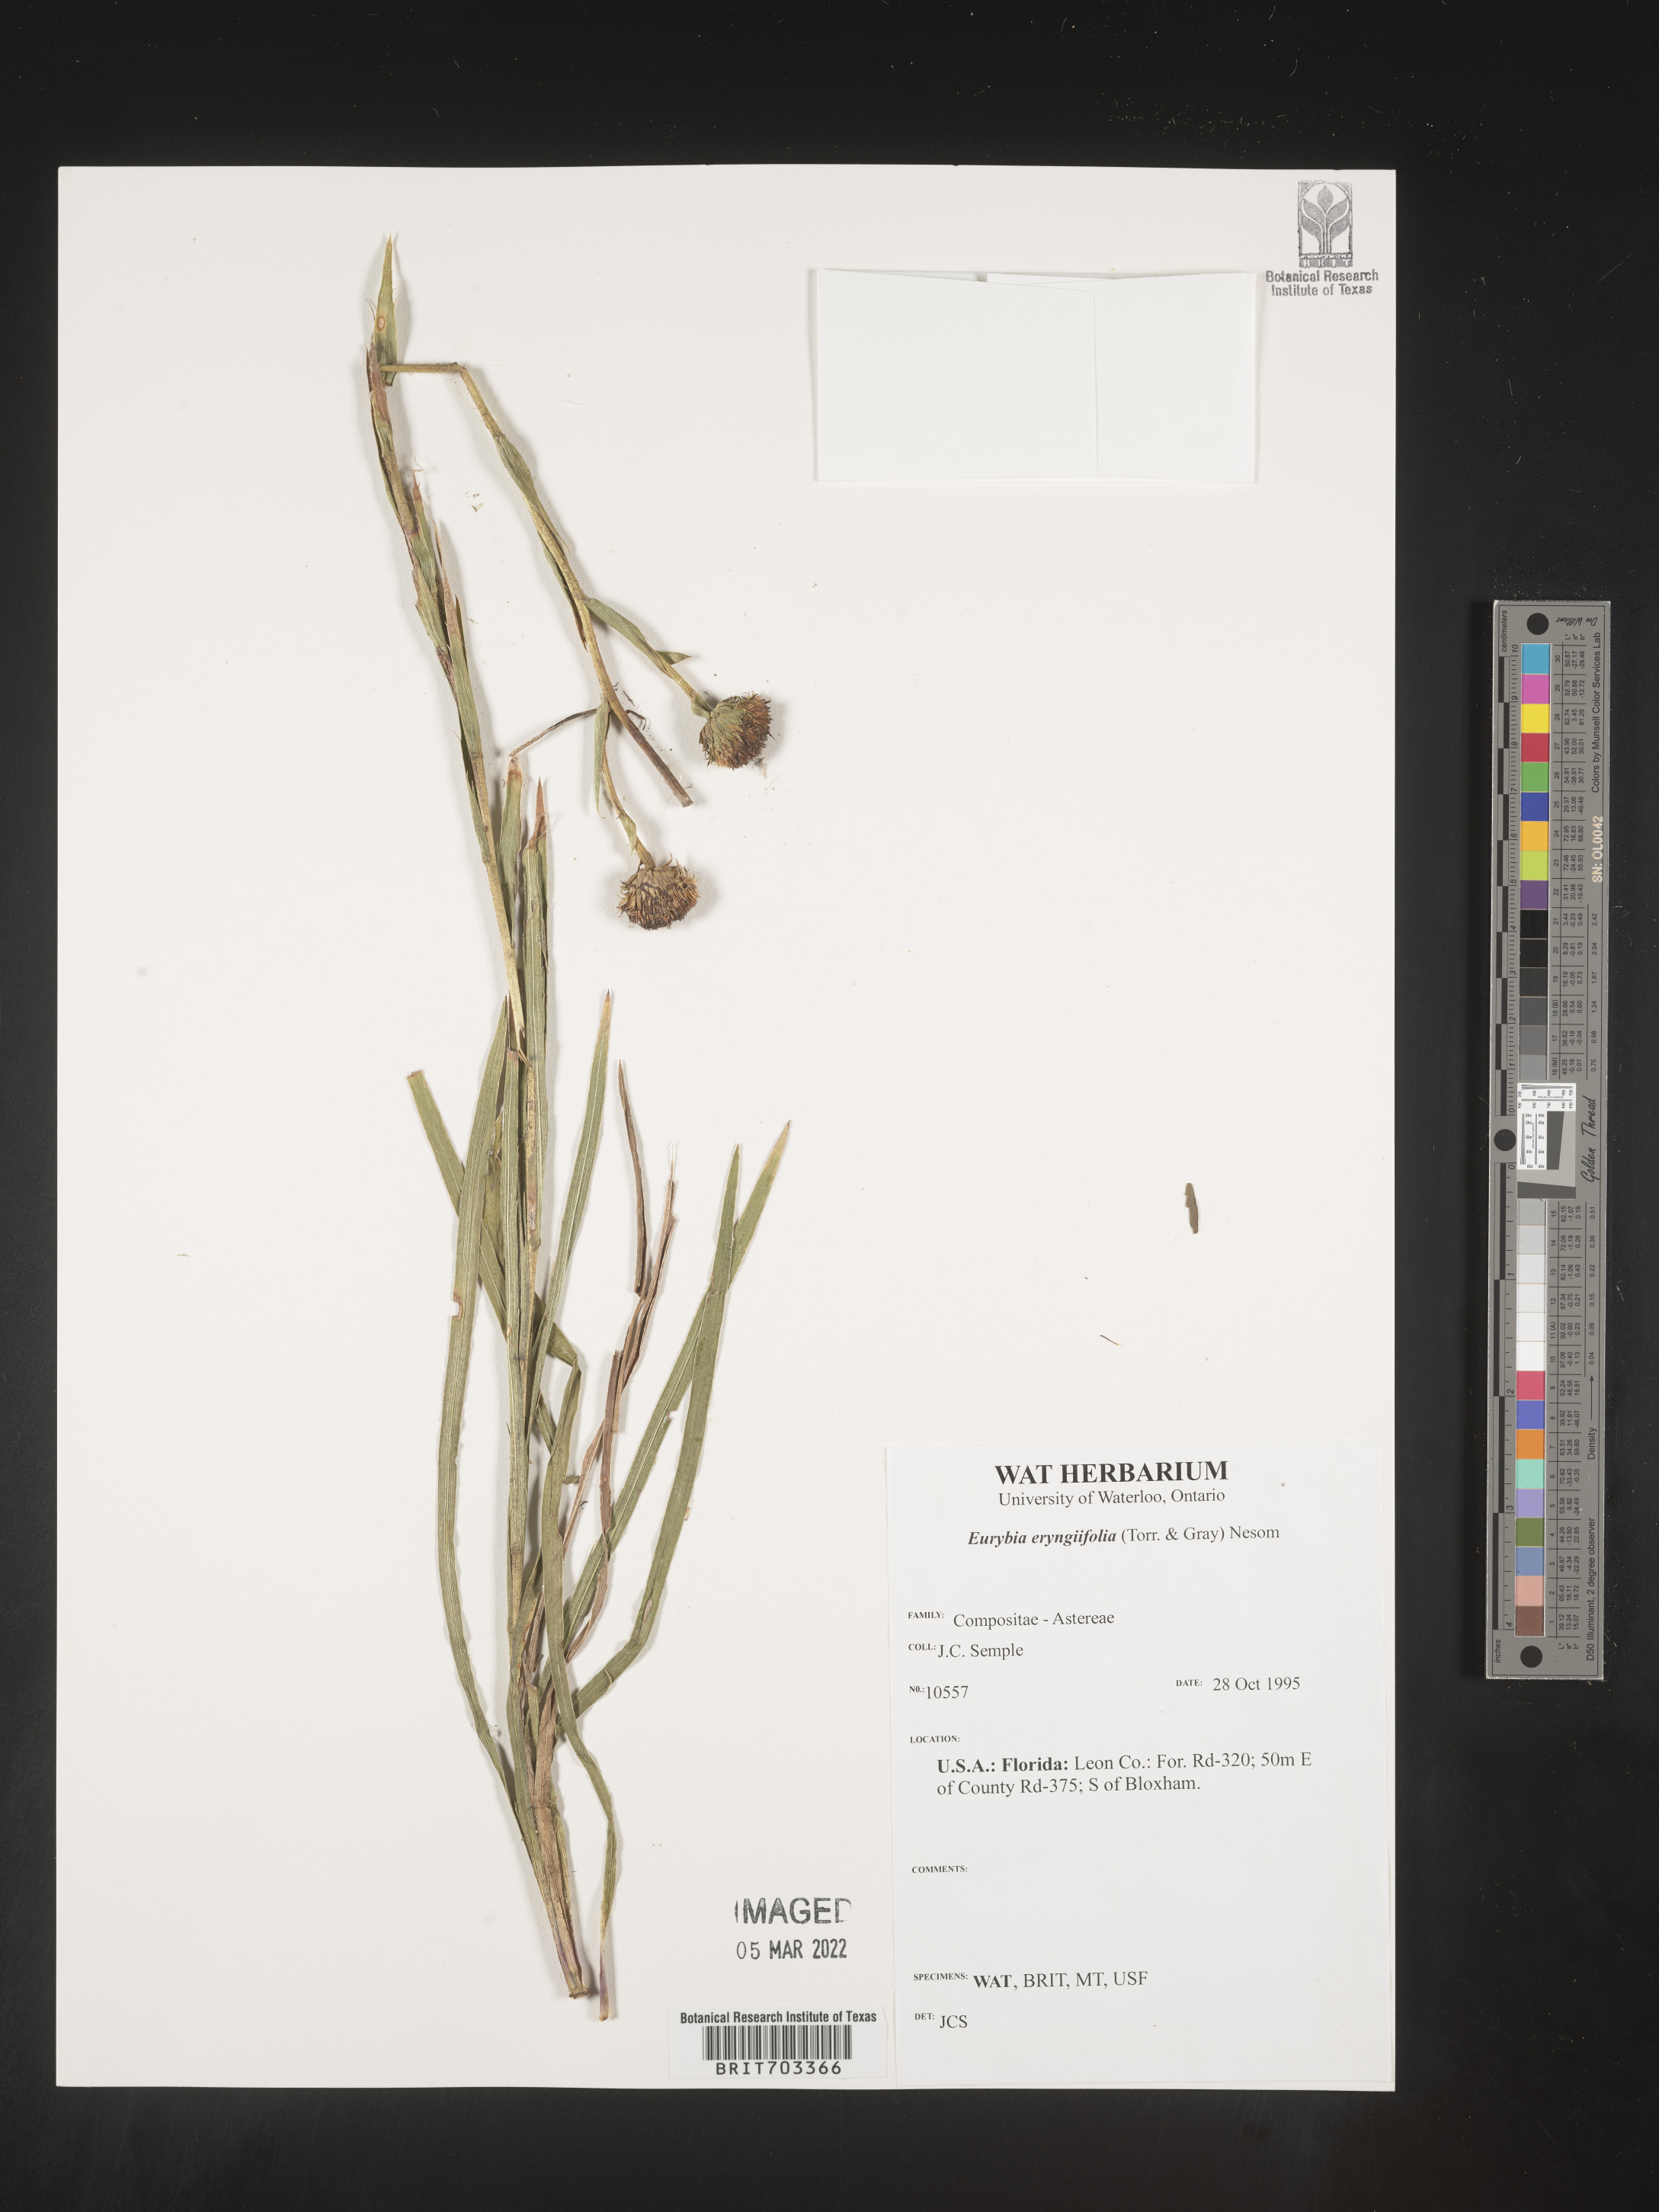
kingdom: Plantae
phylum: Tracheophyta
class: Magnoliopsida
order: Asterales
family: Asteraceae
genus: Eurybia
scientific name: Eurybia eryngiifolia
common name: Thistle-leaf aster
